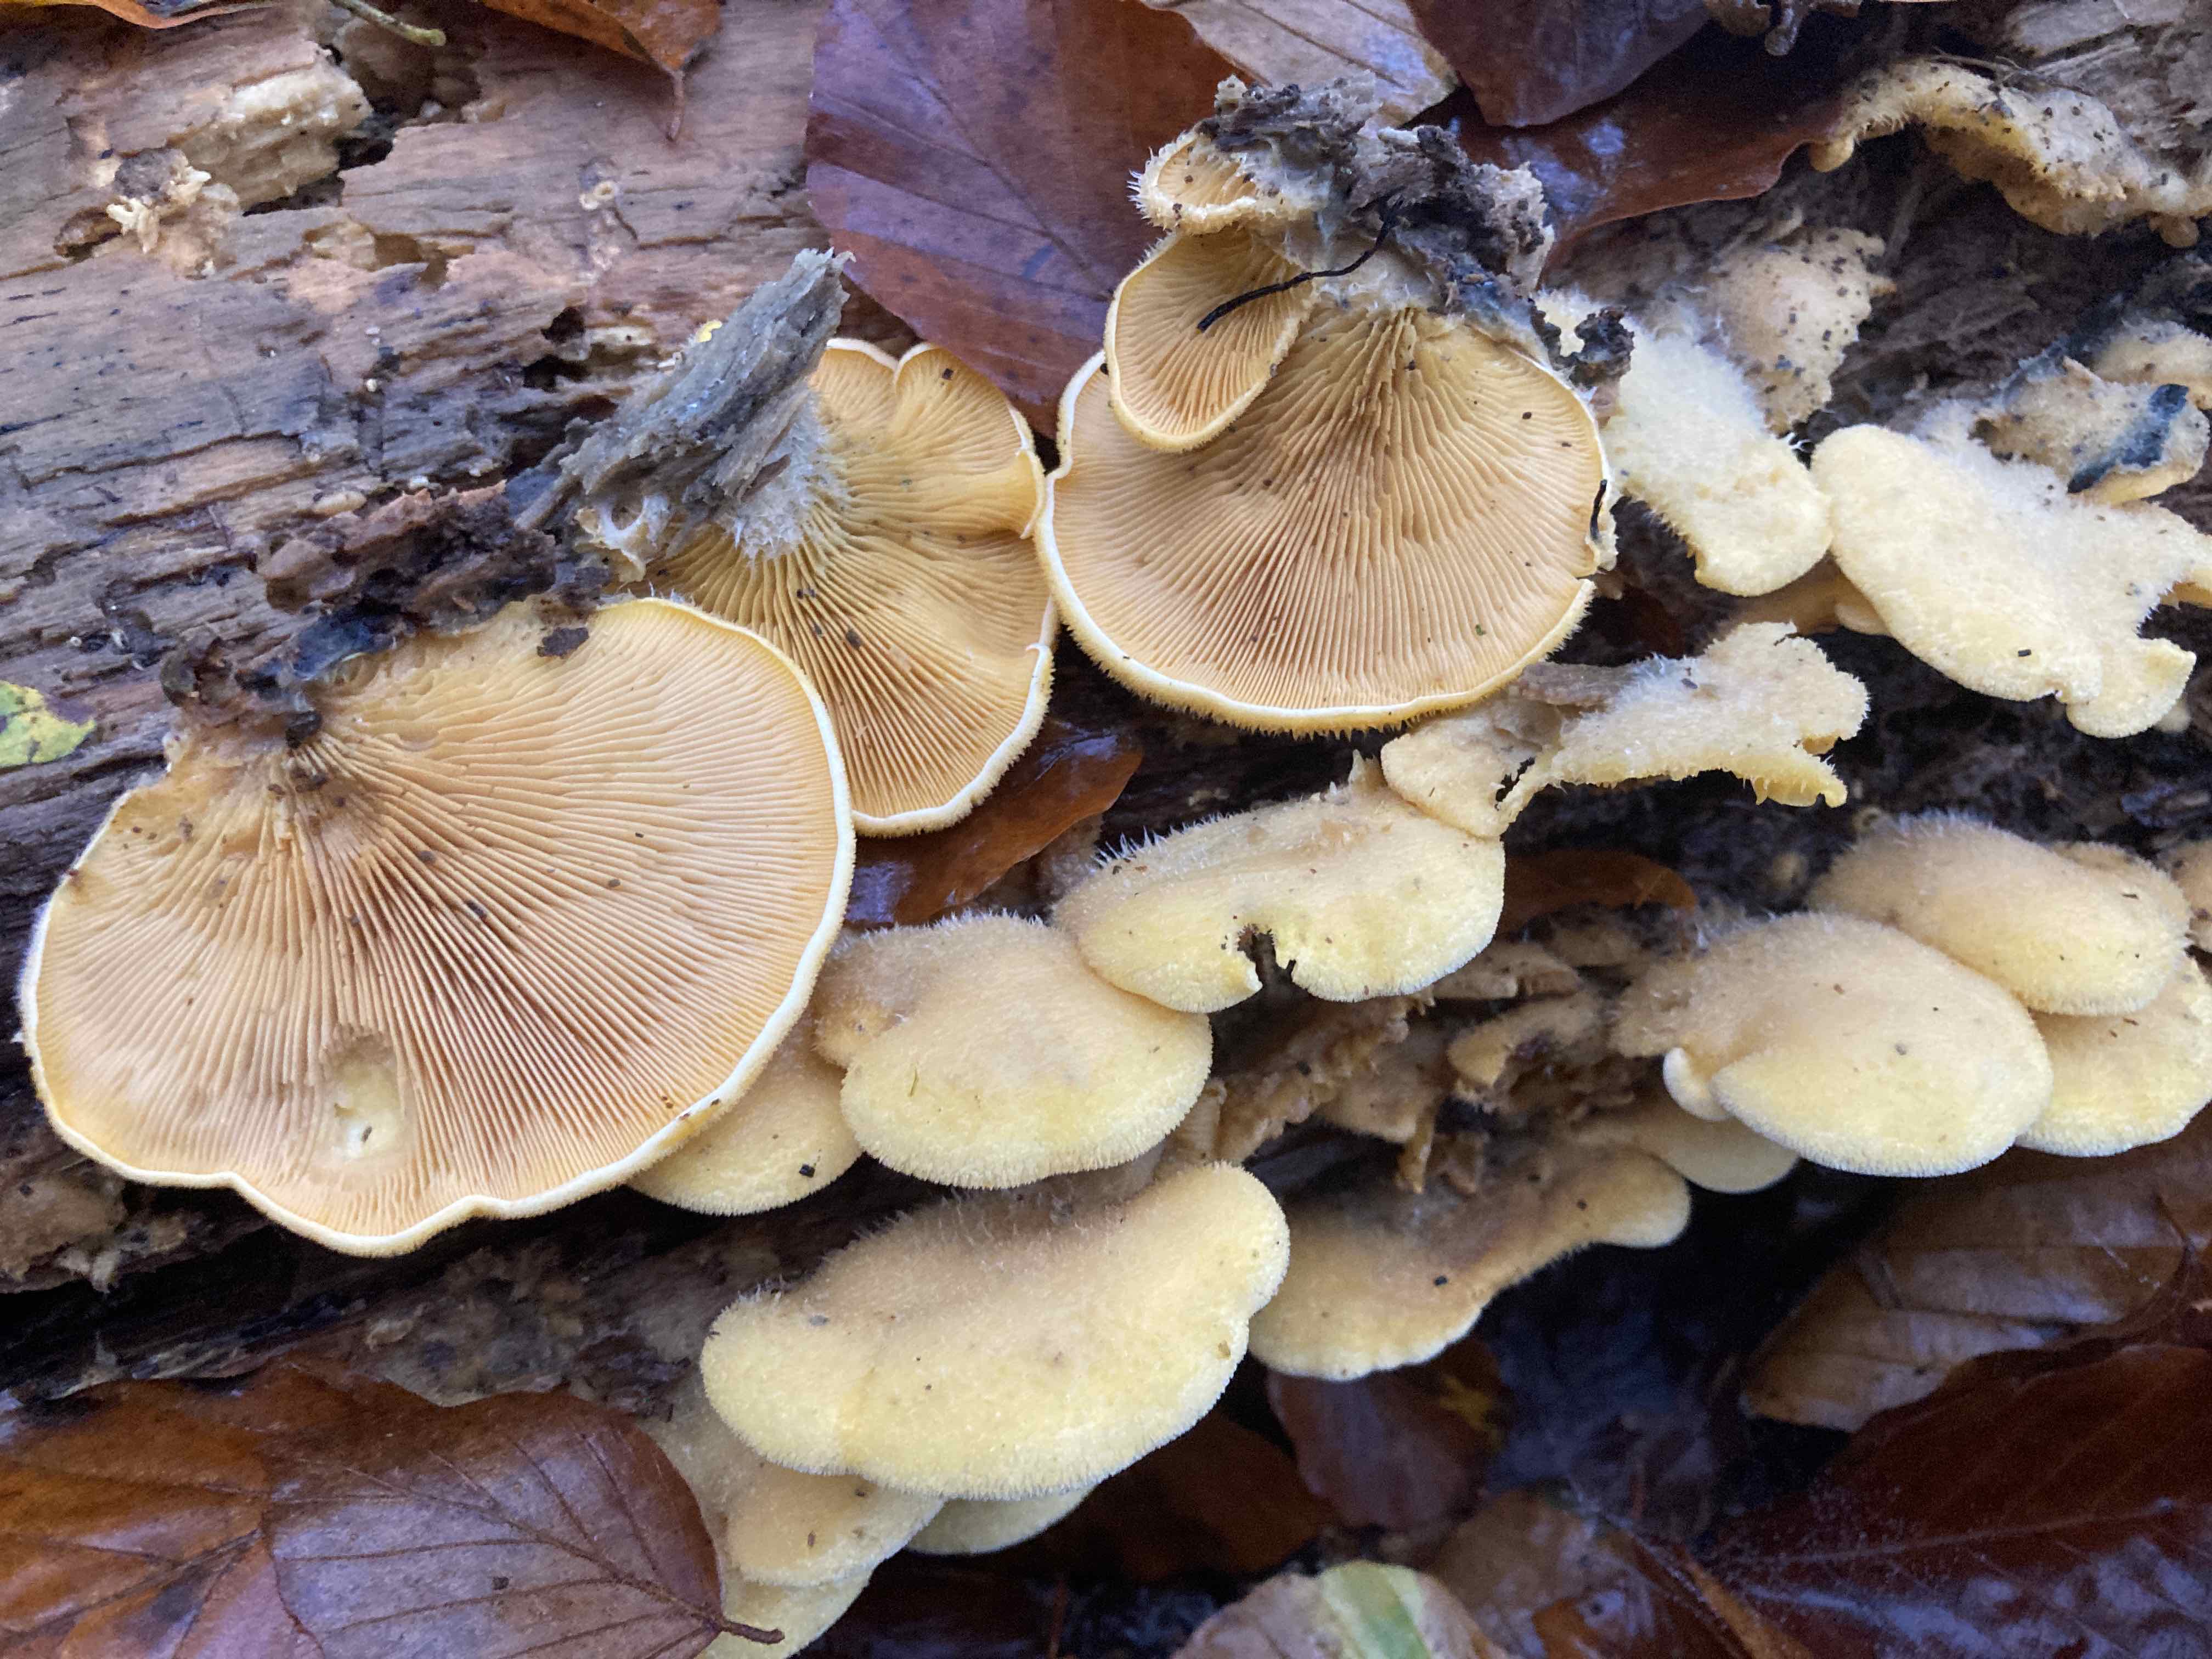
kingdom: Fungi
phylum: Basidiomycota
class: Agaricomycetes
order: Agaricales
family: Phyllotopsidaceae
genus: Phyllotopsis
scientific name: Phyllotopsis nidulans
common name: okkerblad
